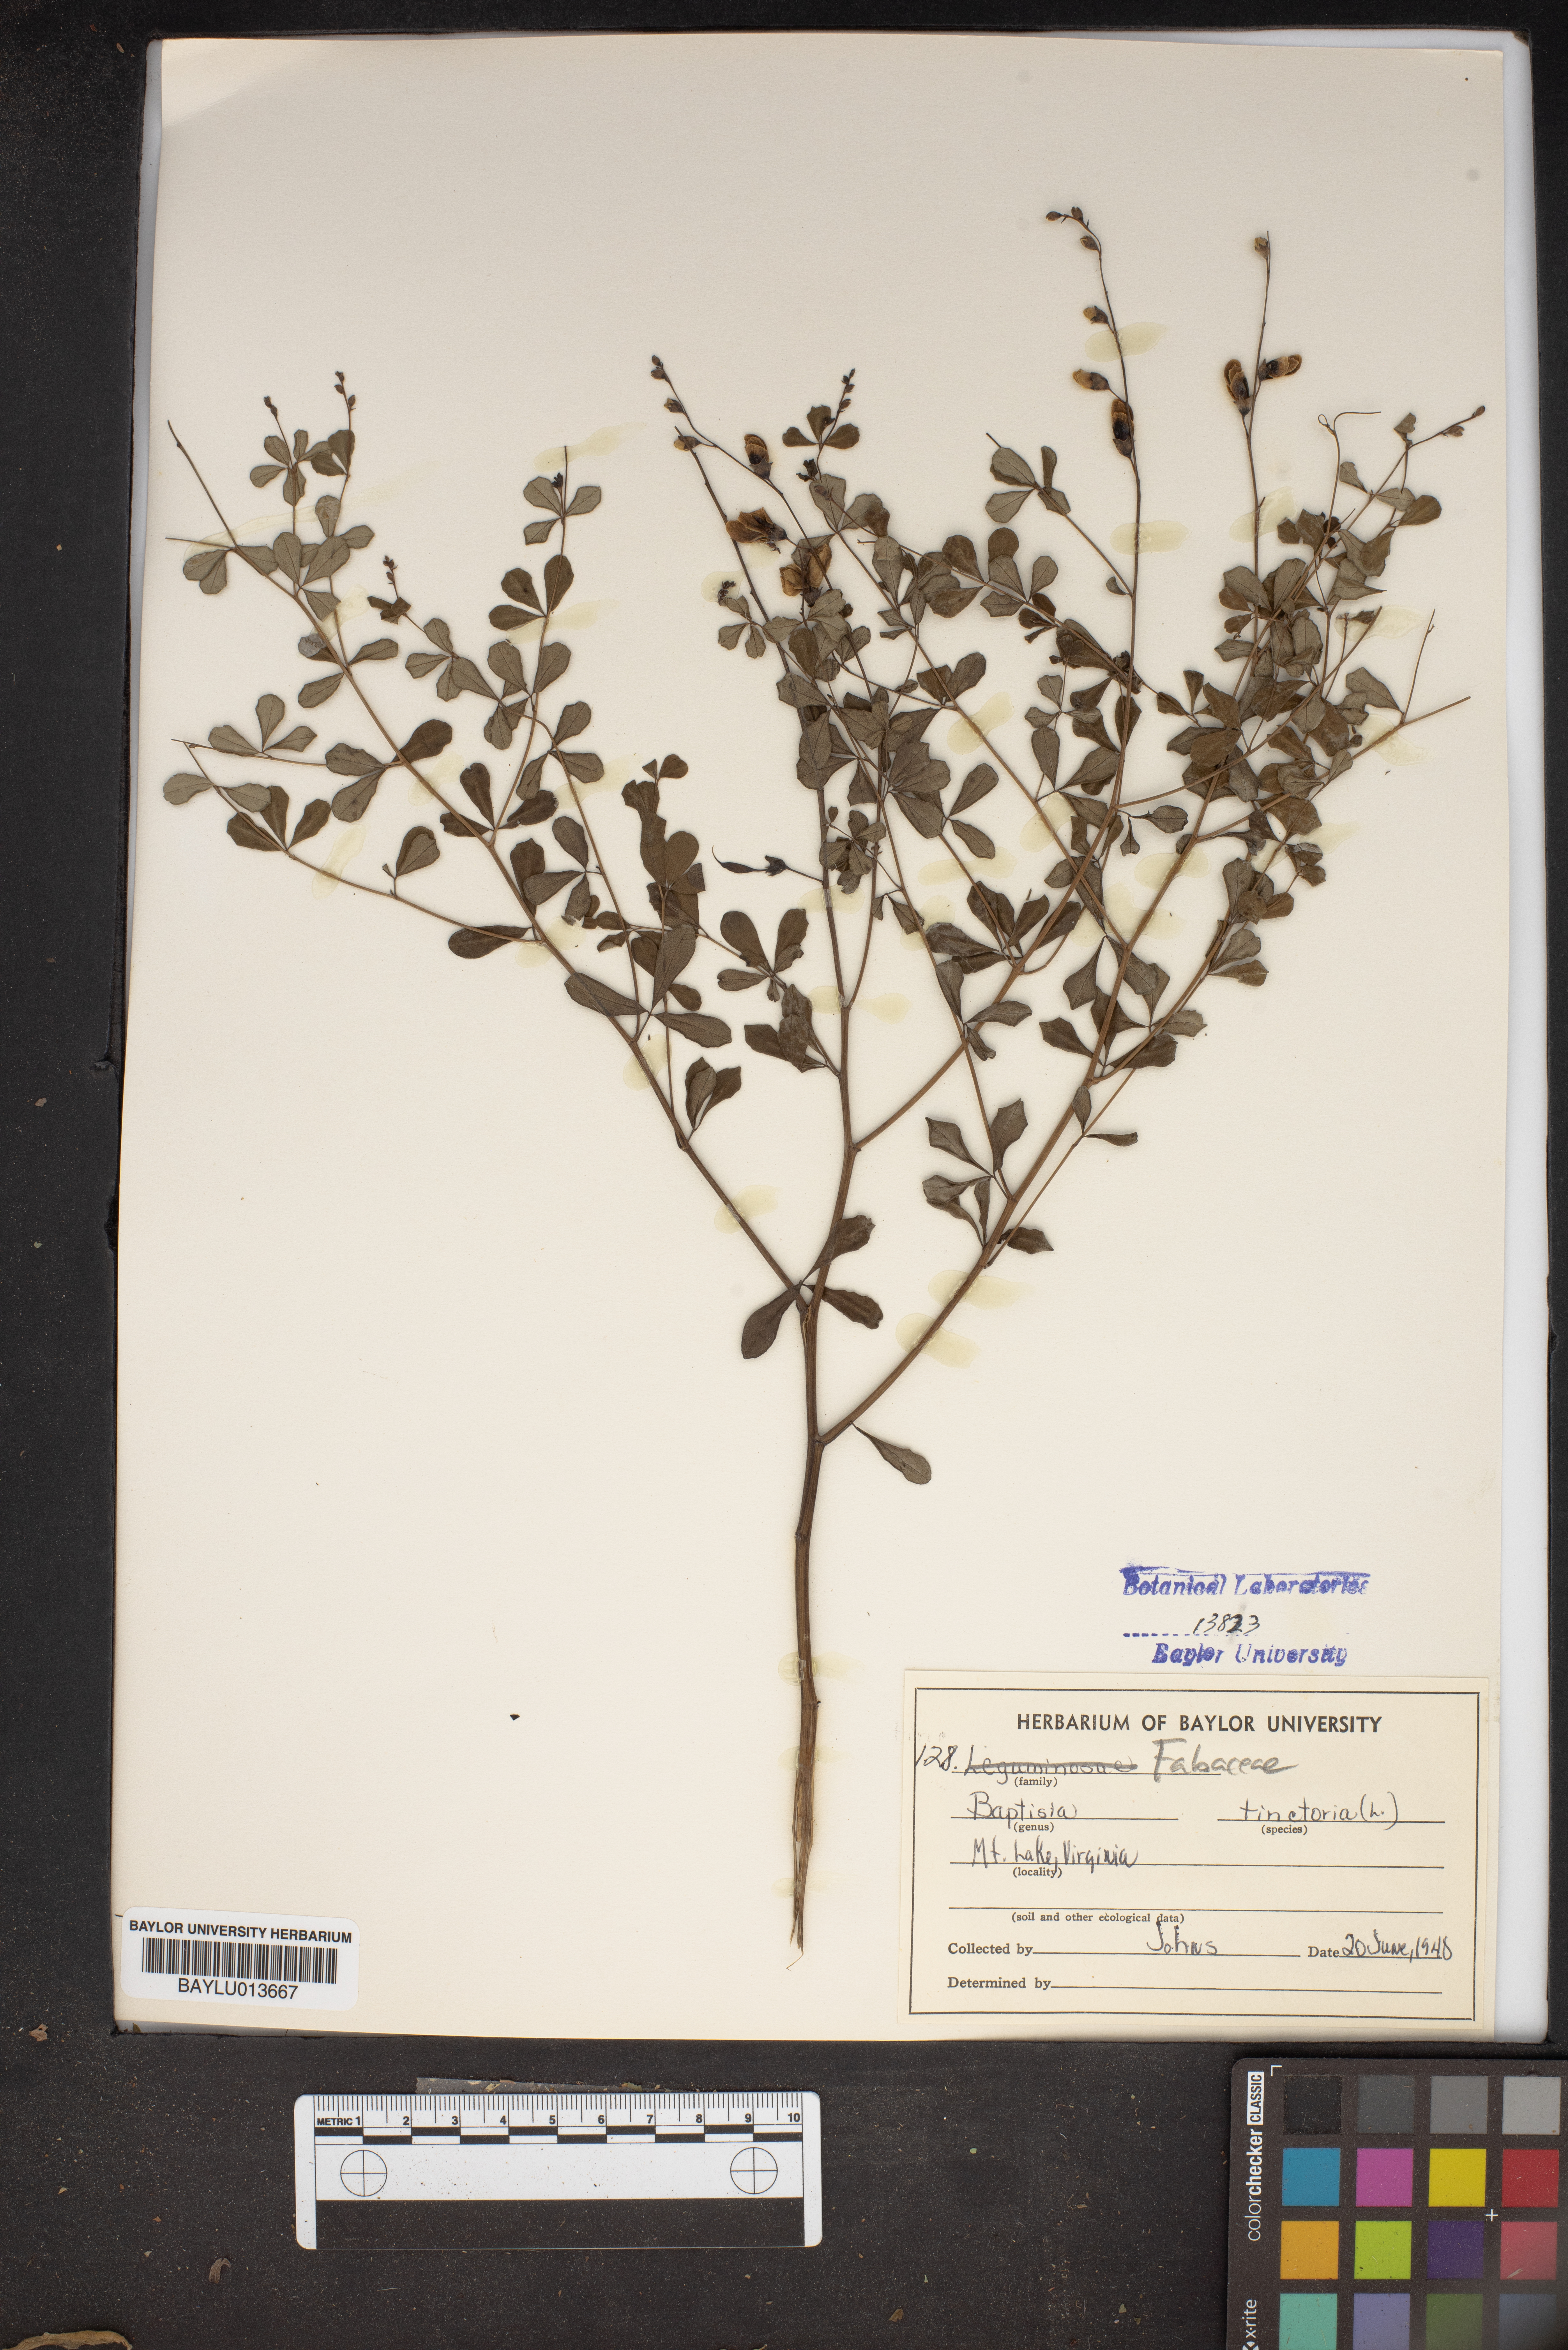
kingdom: Plantae
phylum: Tracheophyta
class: Magnoliopsida
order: Fabales
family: Fabaceae
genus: Baptisia
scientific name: Baptisia tinctoria
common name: Wild indigo
